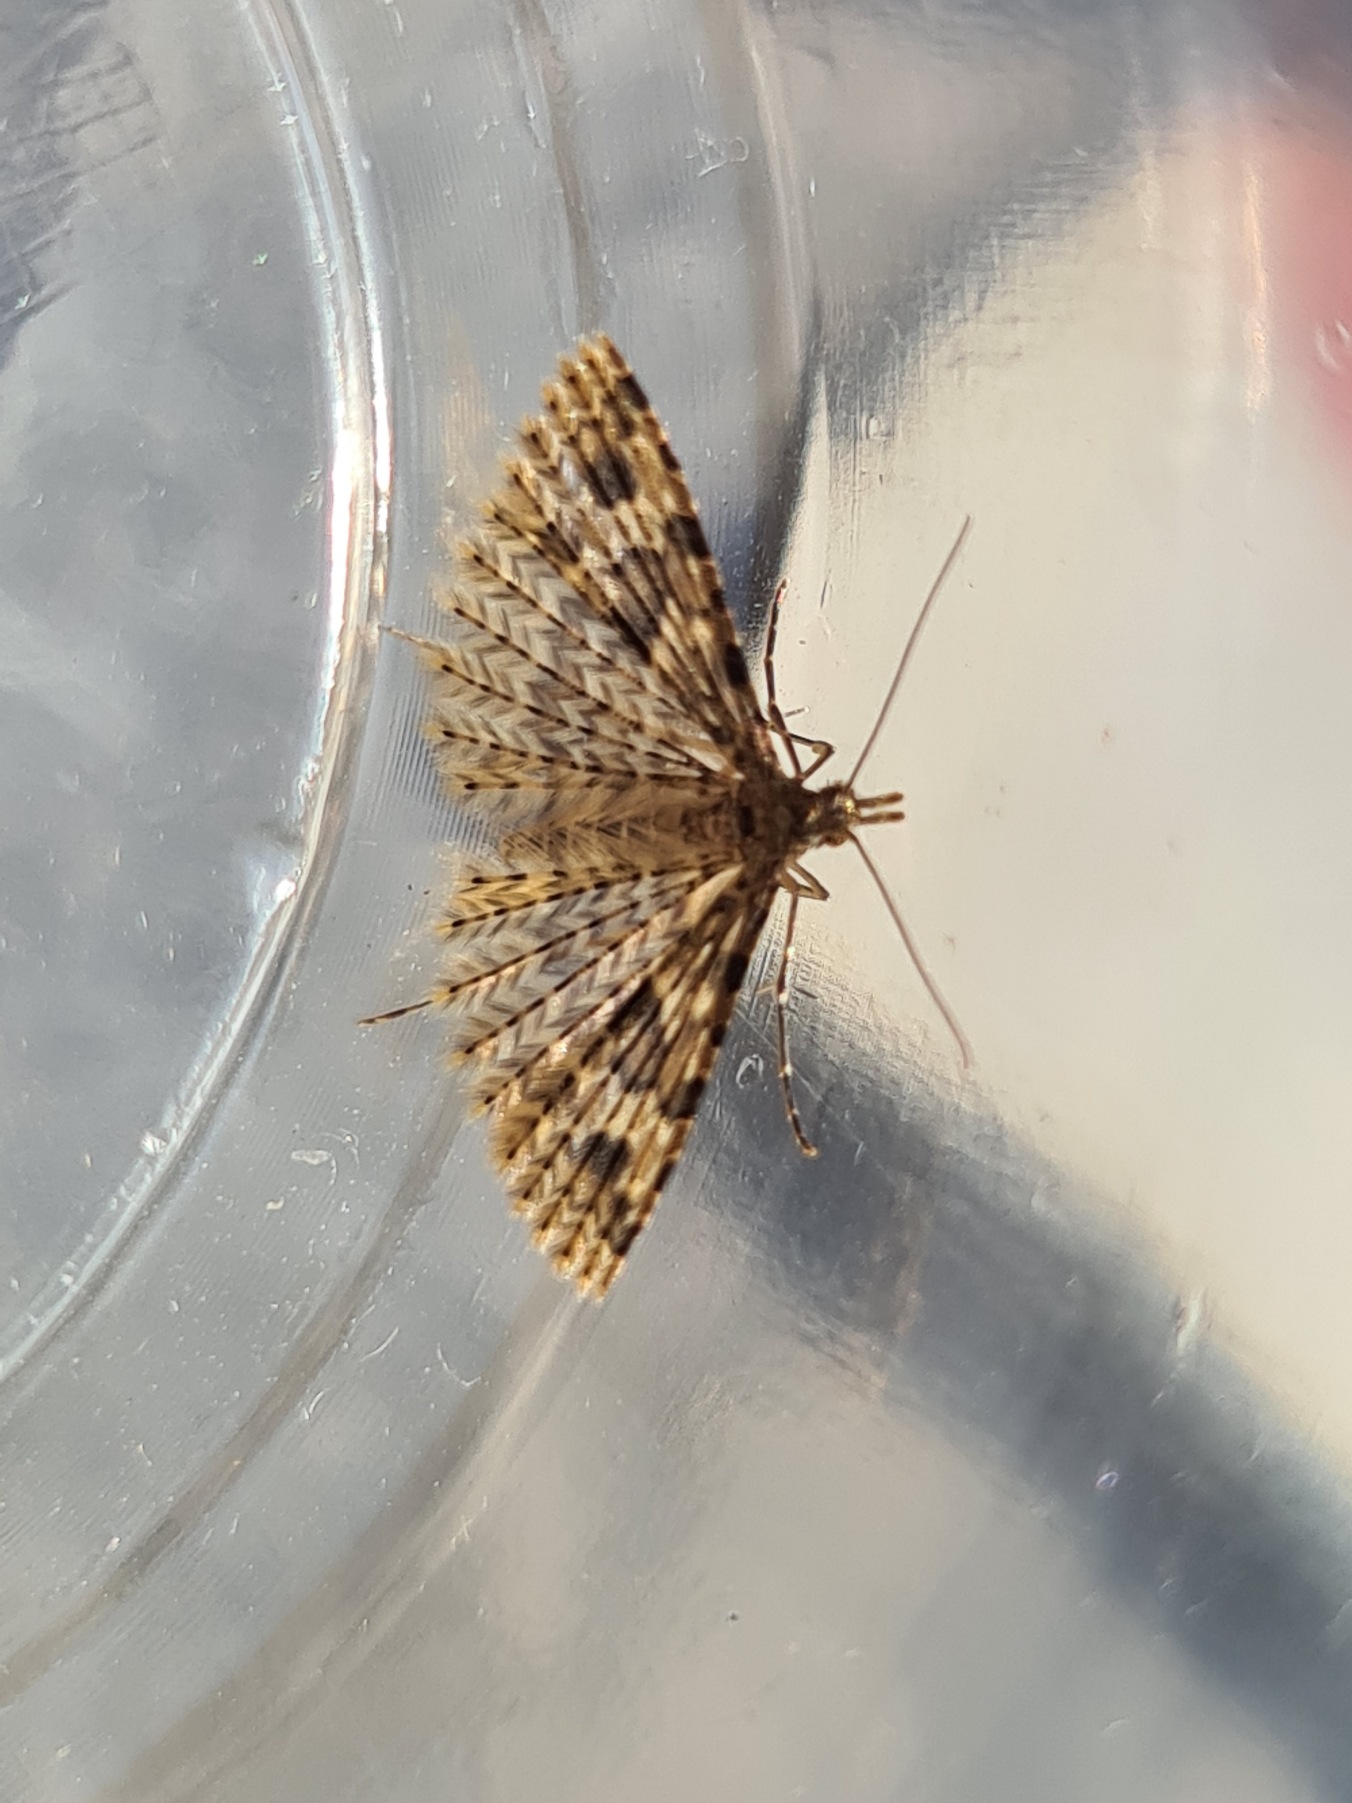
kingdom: Animalia
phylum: Arthropoda
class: Insecta
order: Lepidoptera
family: Alucitidae
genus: Alucita
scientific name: Alucita hexadactyla
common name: Kaprifoliefjermøl
